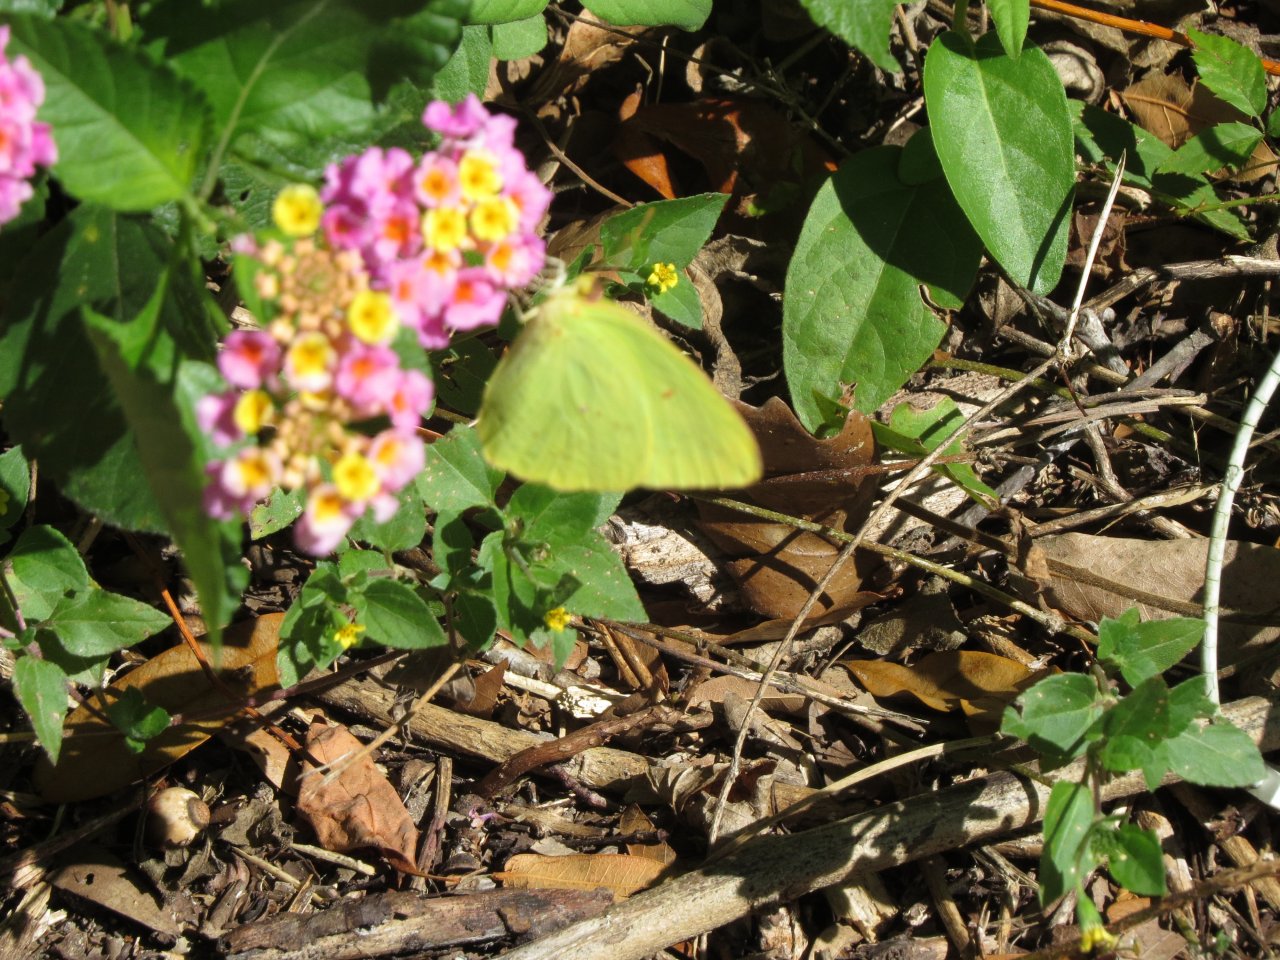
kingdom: Animalia
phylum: Arthropoda
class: Insecta
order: Lepidoptera
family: Pieridae
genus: Phoebis
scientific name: Phoebis sennae
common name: Cloudless Sulphur
